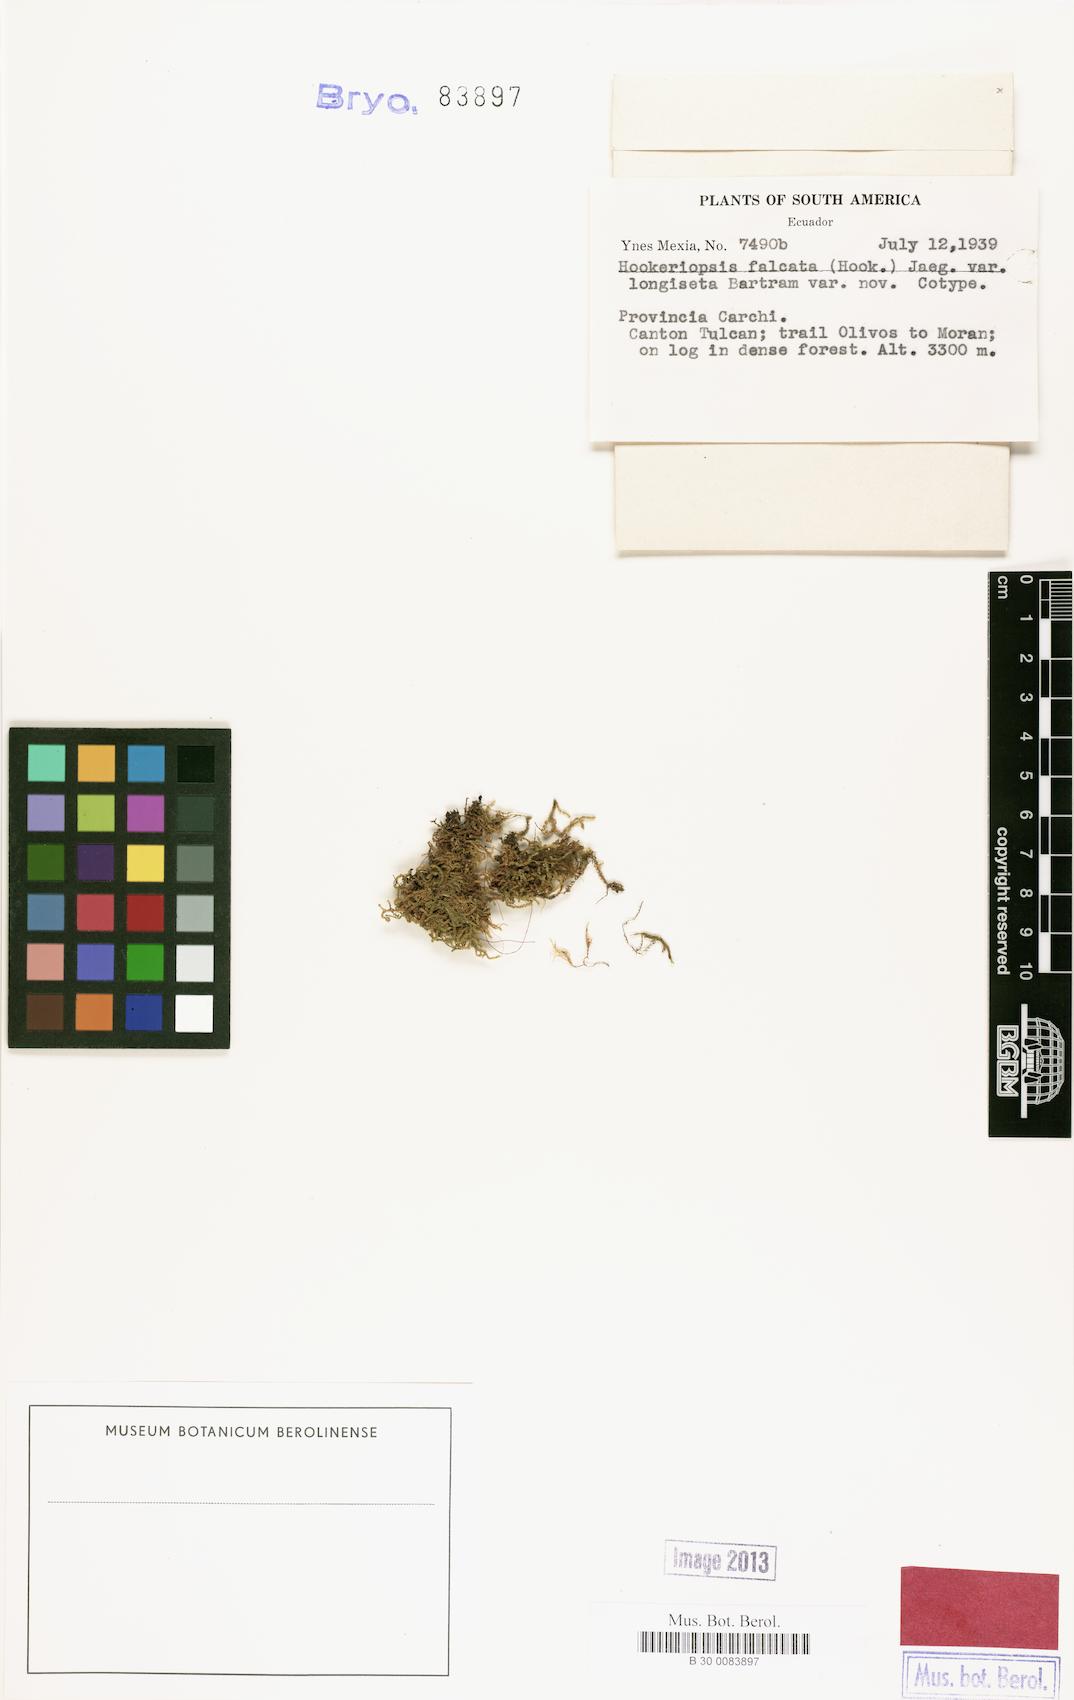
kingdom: Plantae
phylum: Bryophyta
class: Bryopsida
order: Hookeriales
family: Pilotrichaceae
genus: Trachyxiphium
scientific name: Trachyxiphium guadalupense
